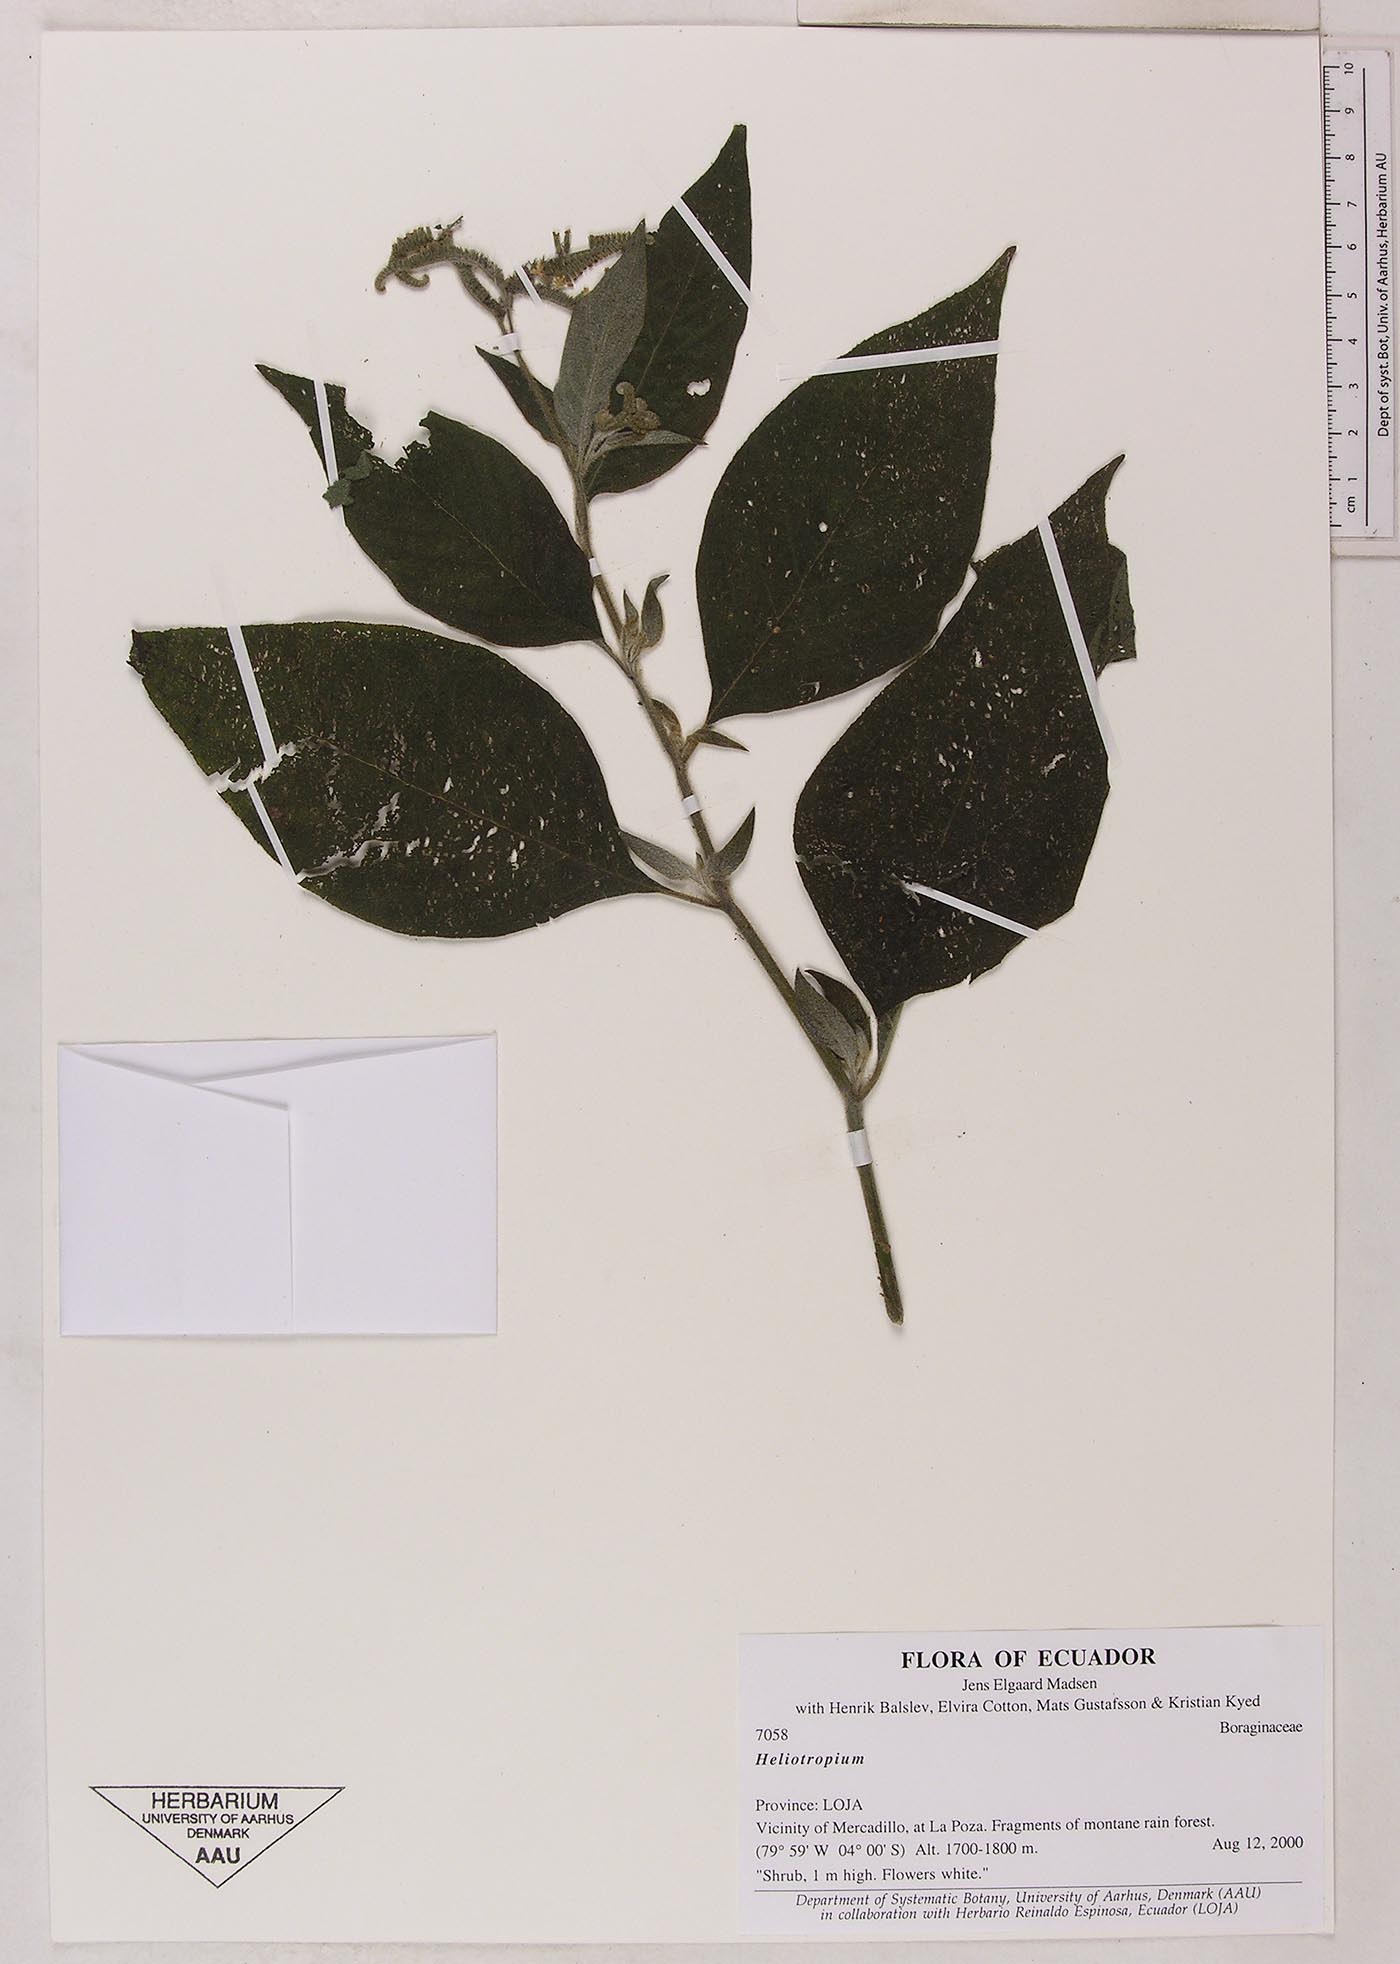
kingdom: Plantae
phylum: Tracheophyta
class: Magnoliopsida
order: Boraginales
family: Heliotropiaceae
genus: Heliotropium
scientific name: Heliotropium rufipilum
